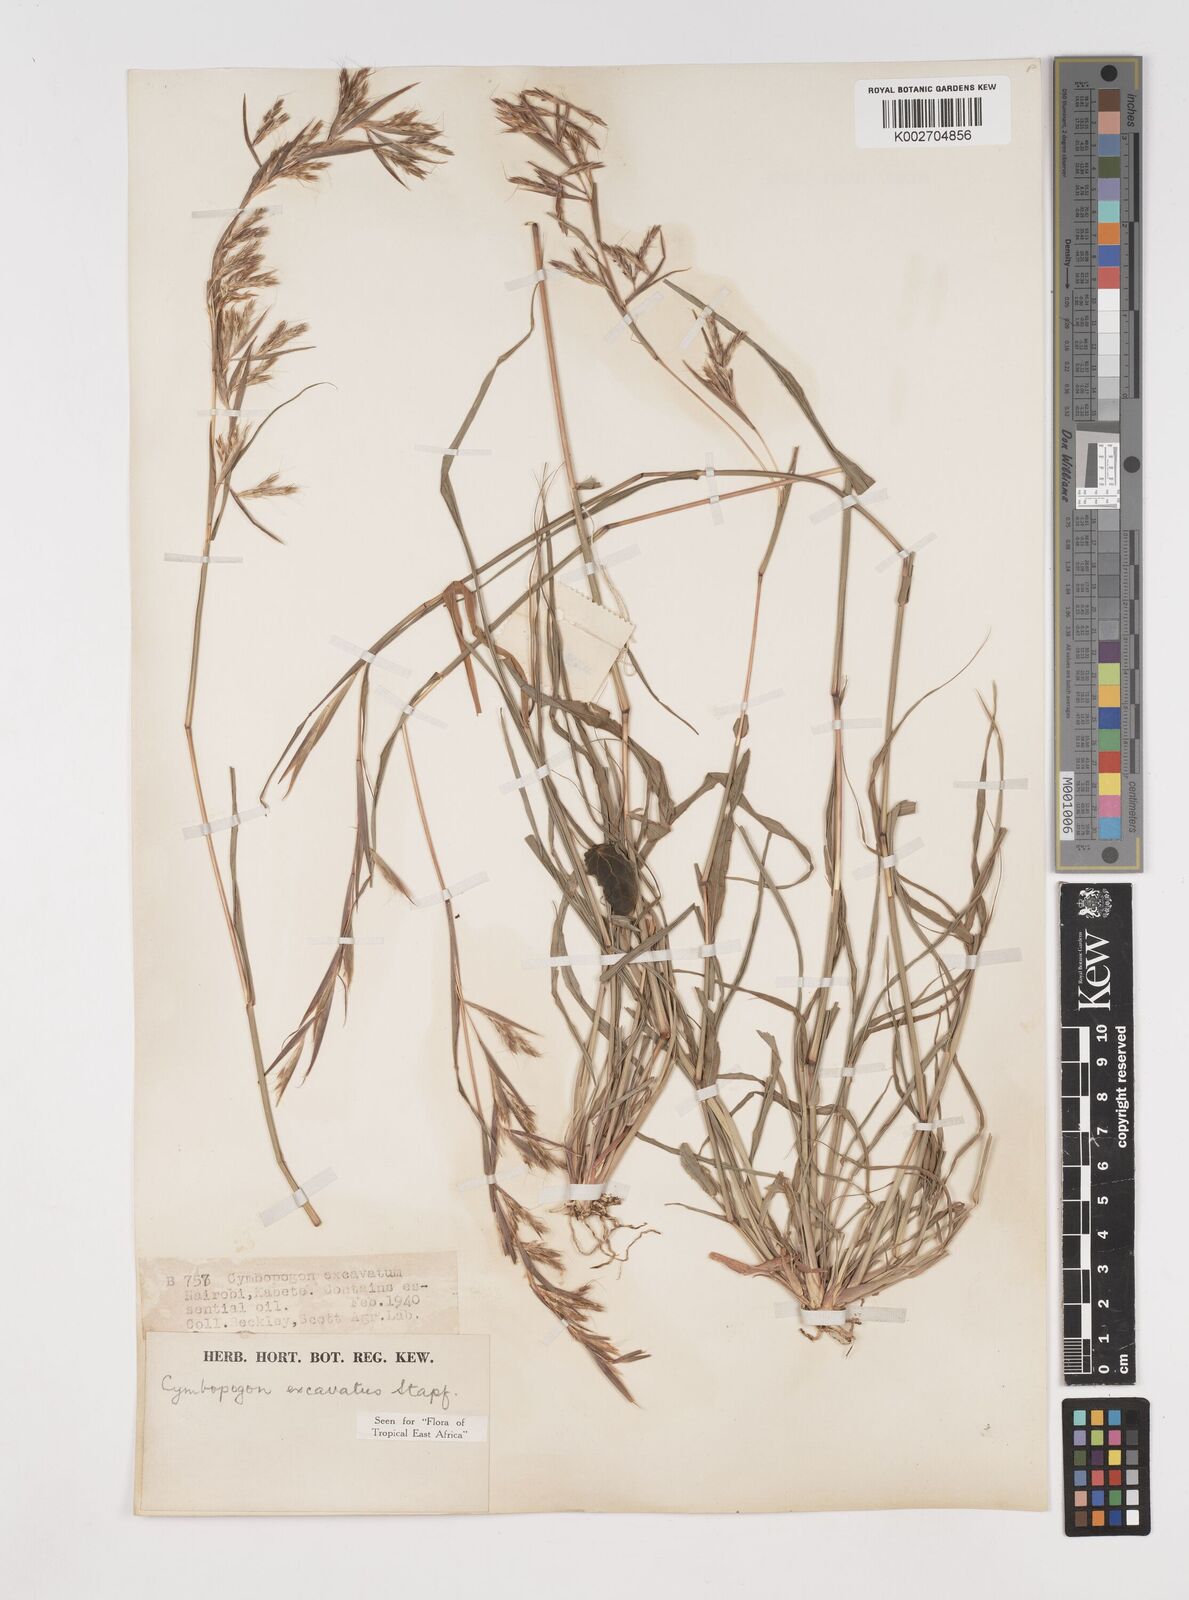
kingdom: Plantae
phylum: Tracheophyta
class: Liliopsida
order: Poales
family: Poaceae
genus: Cymbopogon
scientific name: Cymbopogon caesius
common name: Kachi grass
